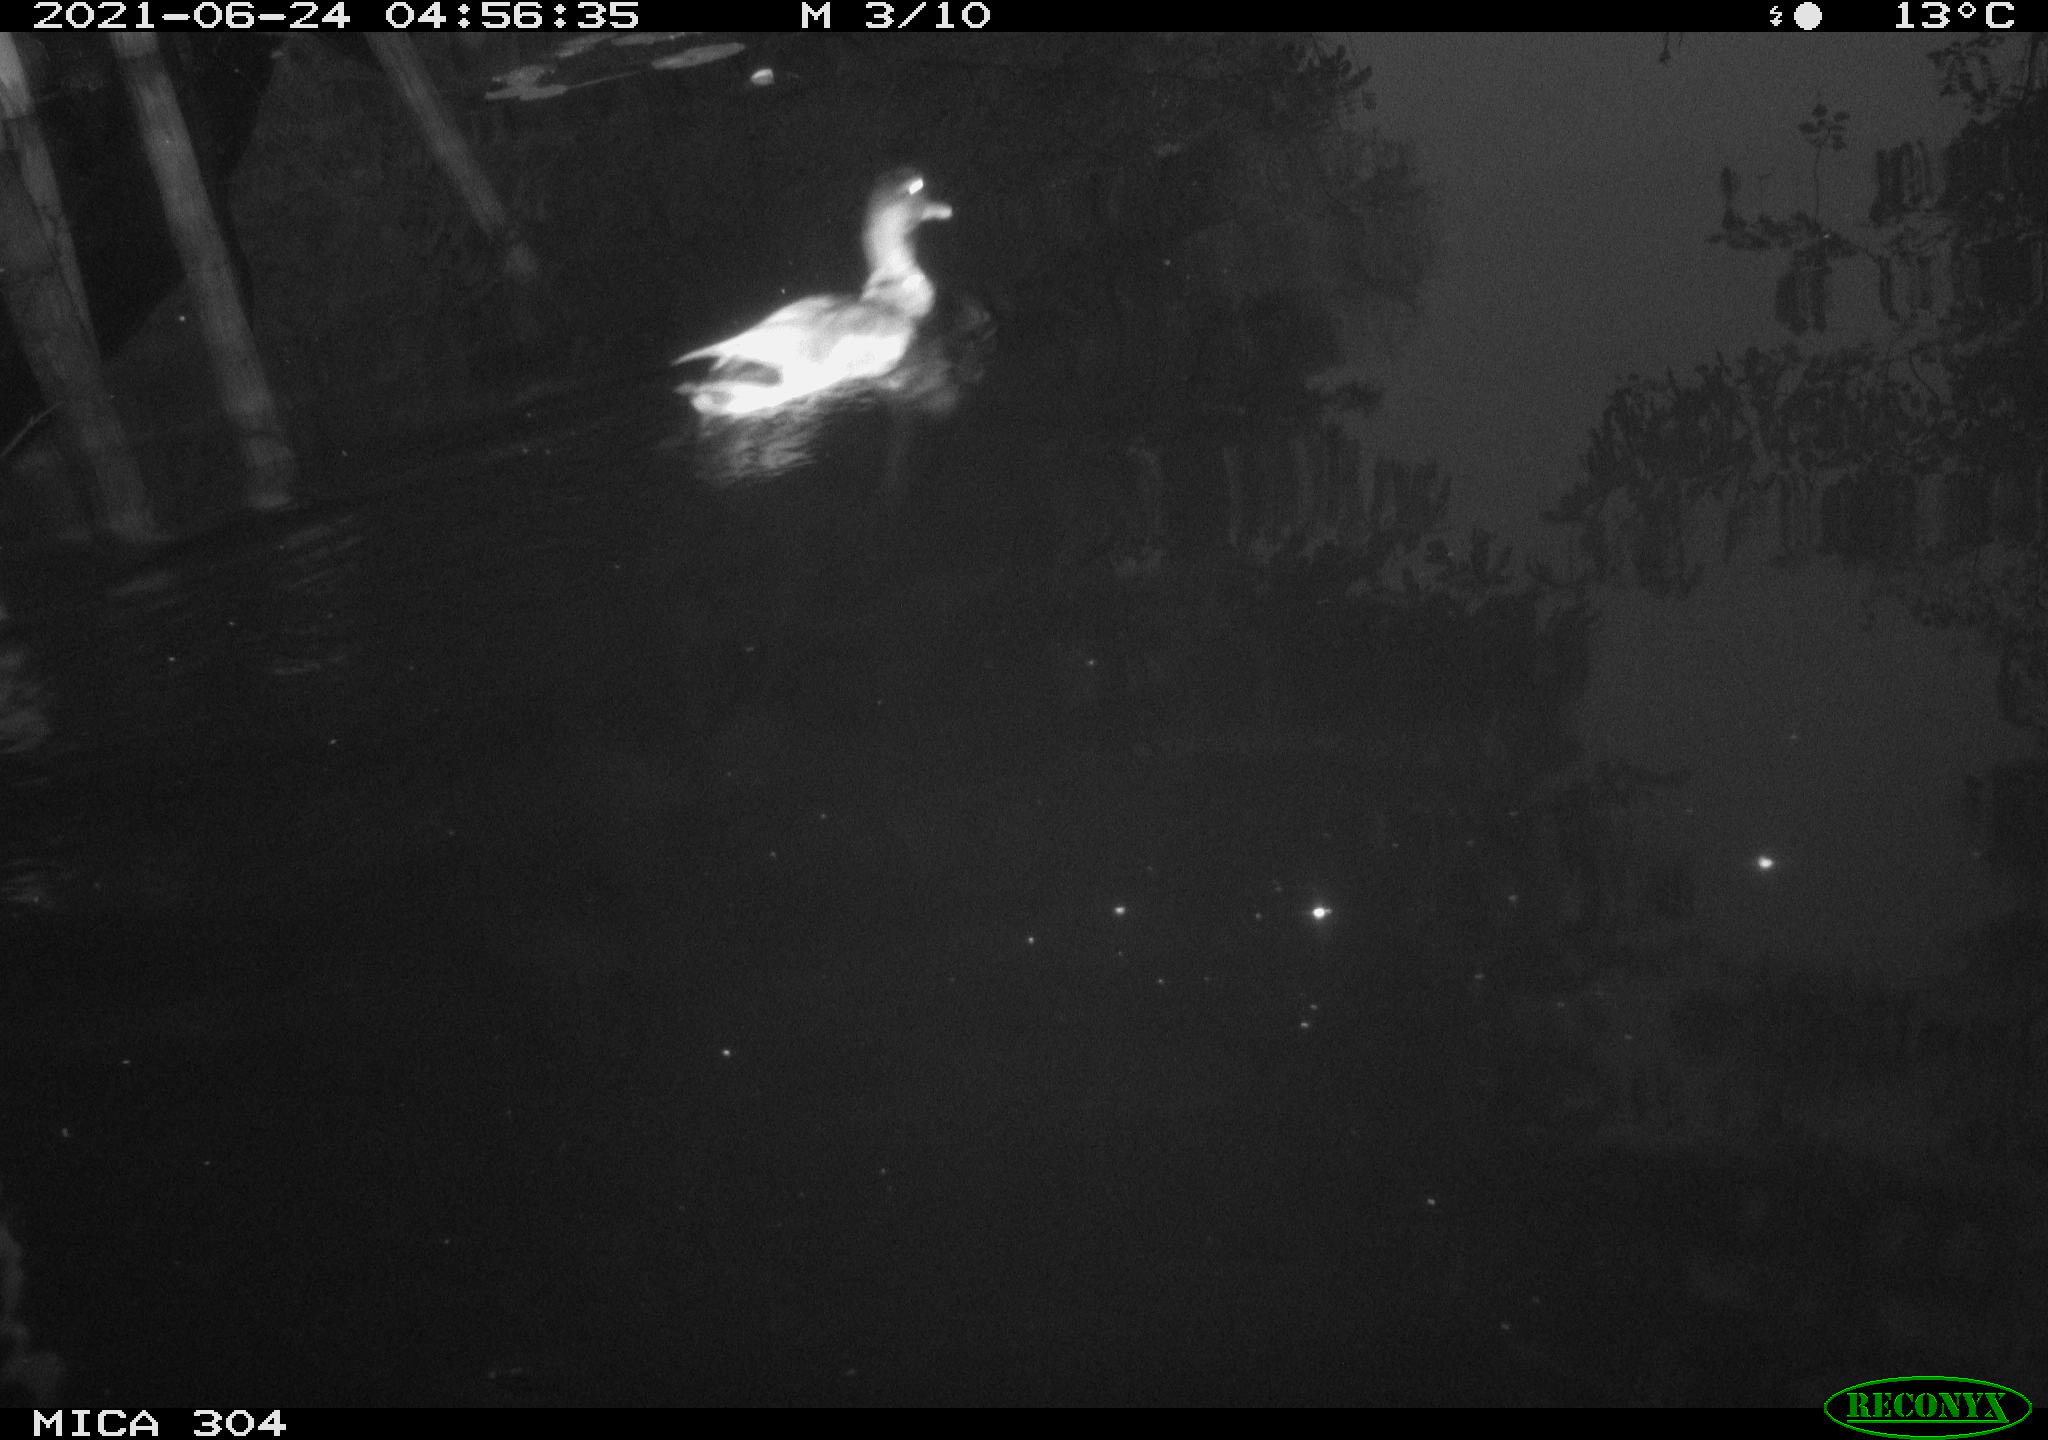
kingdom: Animalia
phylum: Chordata
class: Aves
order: Anseriformes
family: Anatidae
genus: Anas
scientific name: Anas platyrhynchos
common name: Mallard
